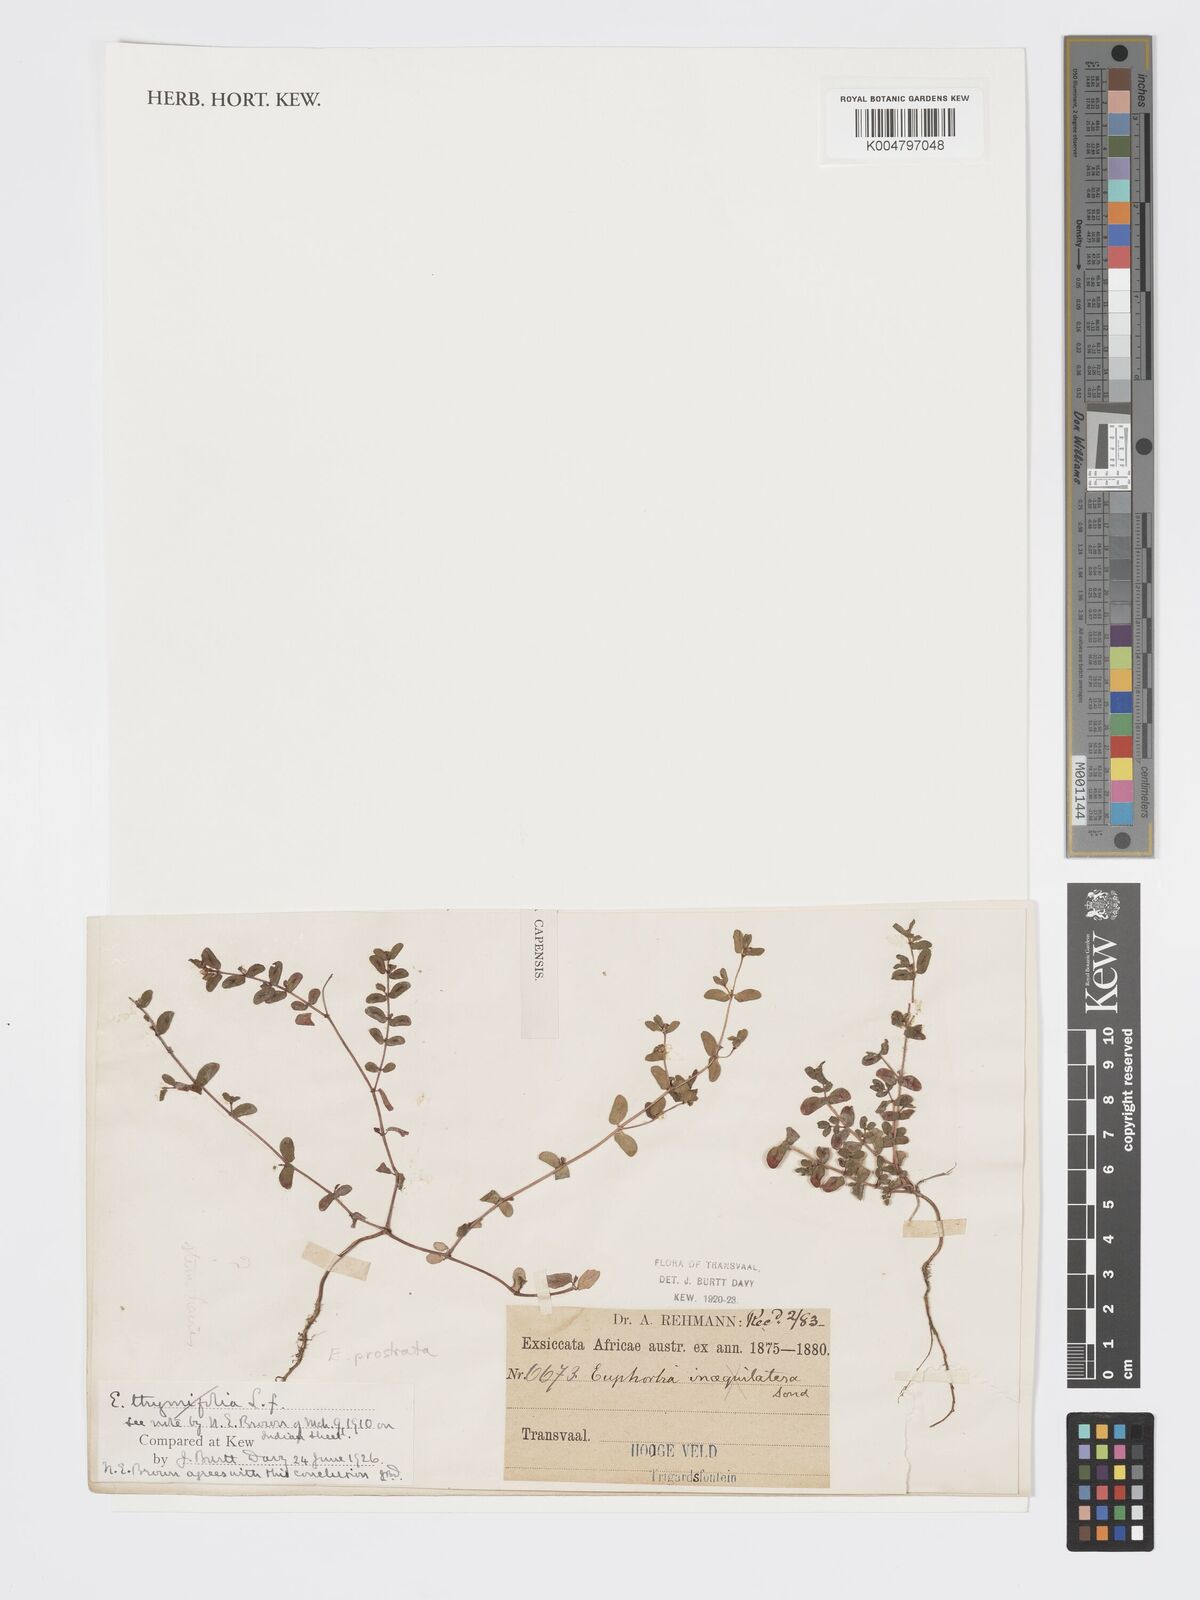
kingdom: Plantae
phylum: Tracheophyta
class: Magnoliopsida
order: Malpighiales
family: Euphorbiaceae
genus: Euphorbia
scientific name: Euphorbia
